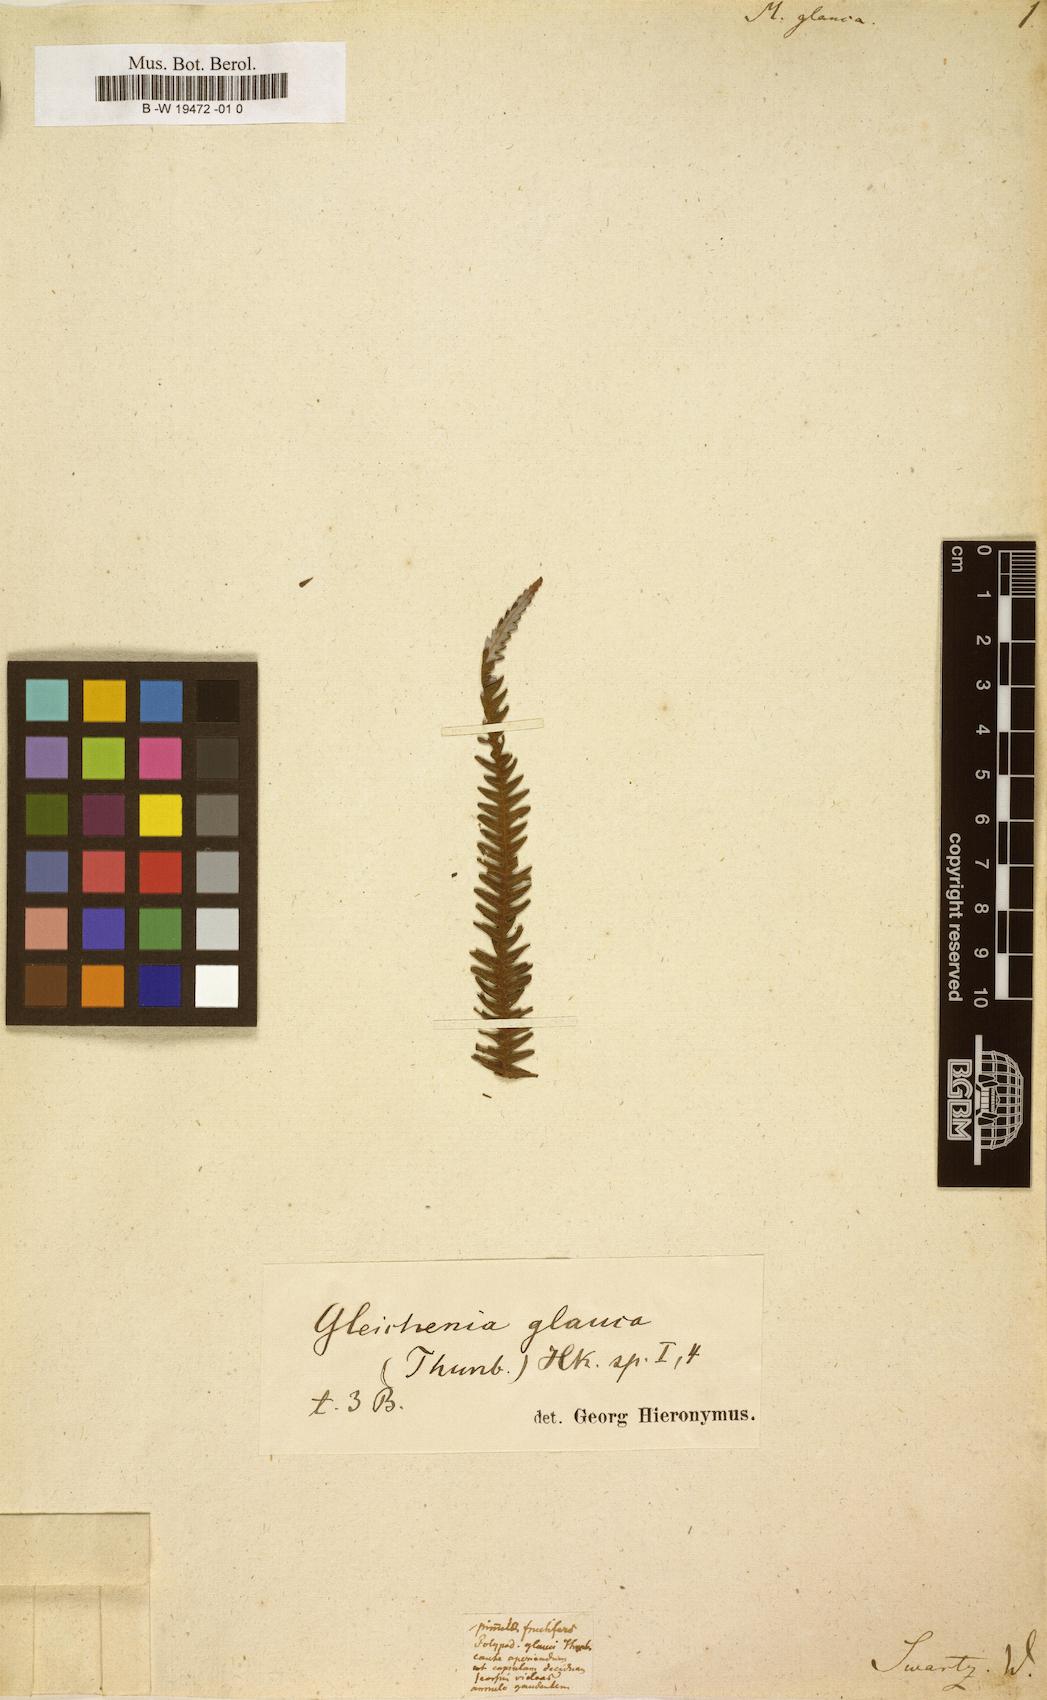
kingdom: Plantae
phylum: Tracheophyta
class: Polypodiopsida
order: Gleicheniales
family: Gleicheniaceae
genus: Diplopterygium
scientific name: Diplopterygium glaucum
